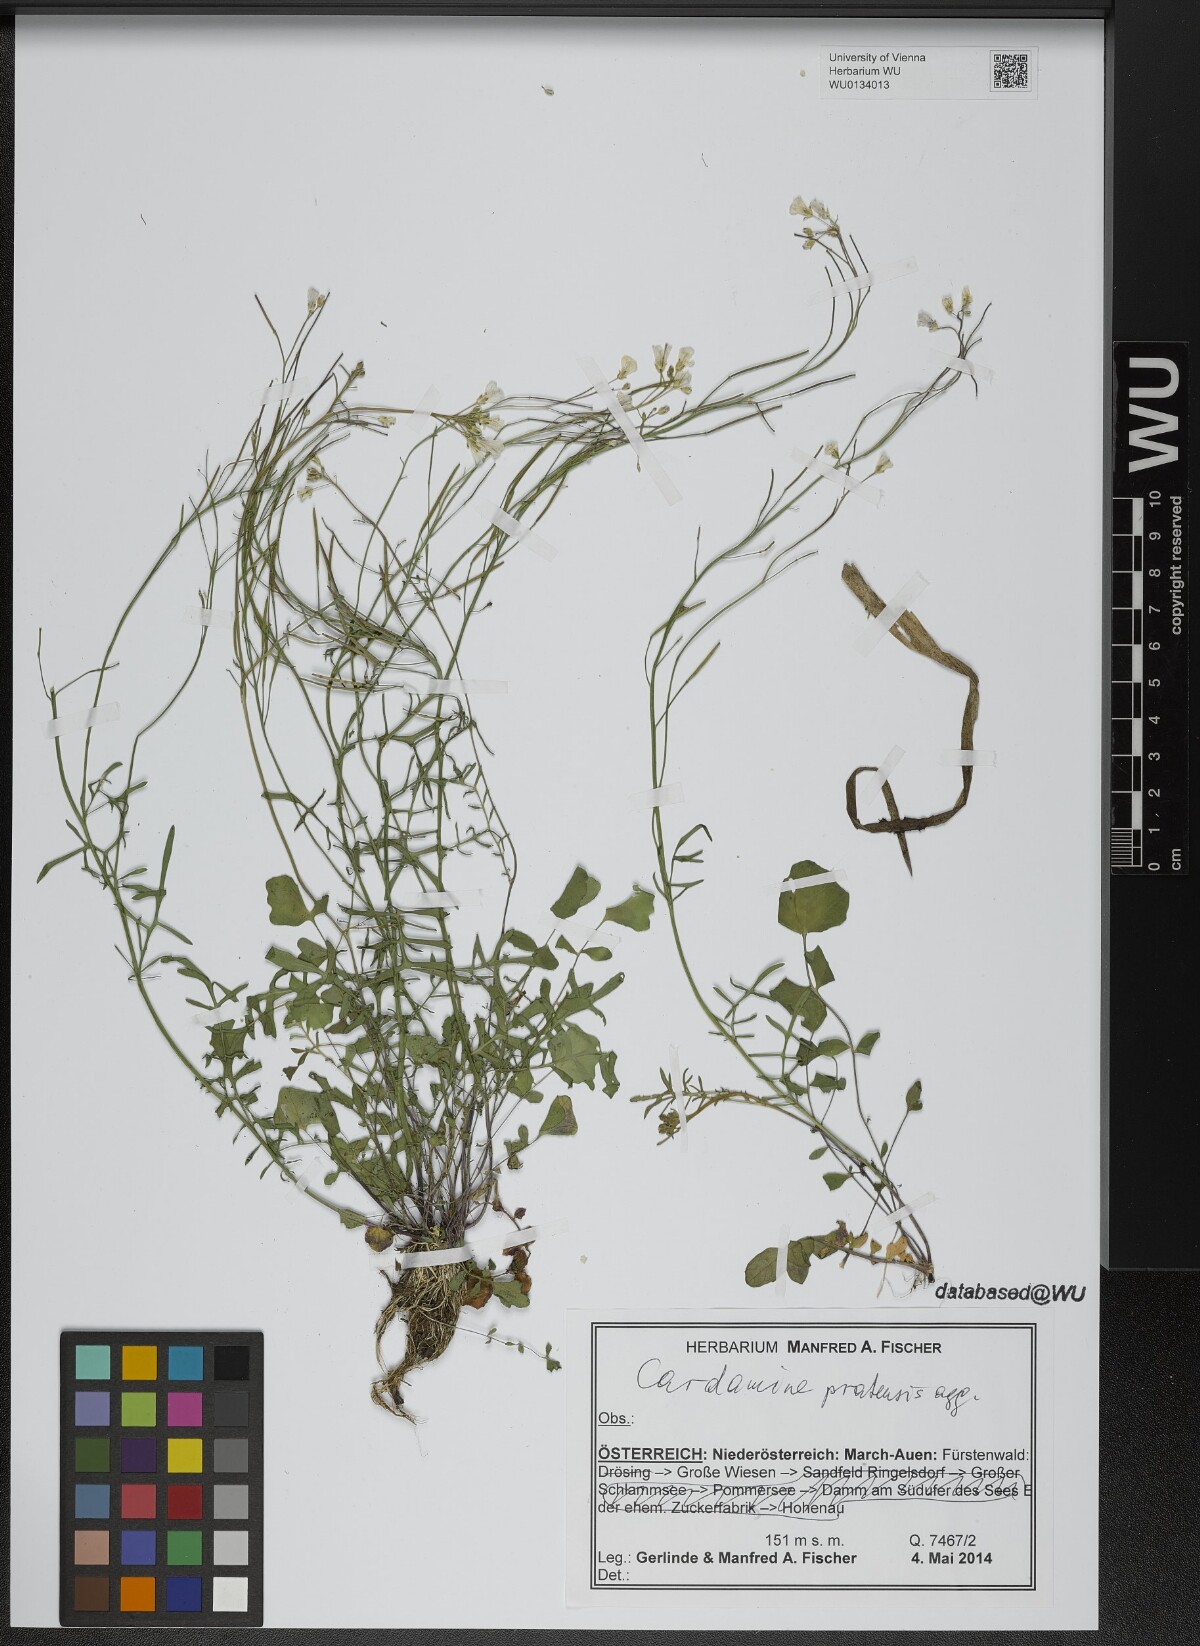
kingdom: Plantae
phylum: Tracheophyta
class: Magnoliopsida
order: Brassicales
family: Brassicaceae
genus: Cardamine
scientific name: Cardamine pratensis
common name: Cuckoo flower
